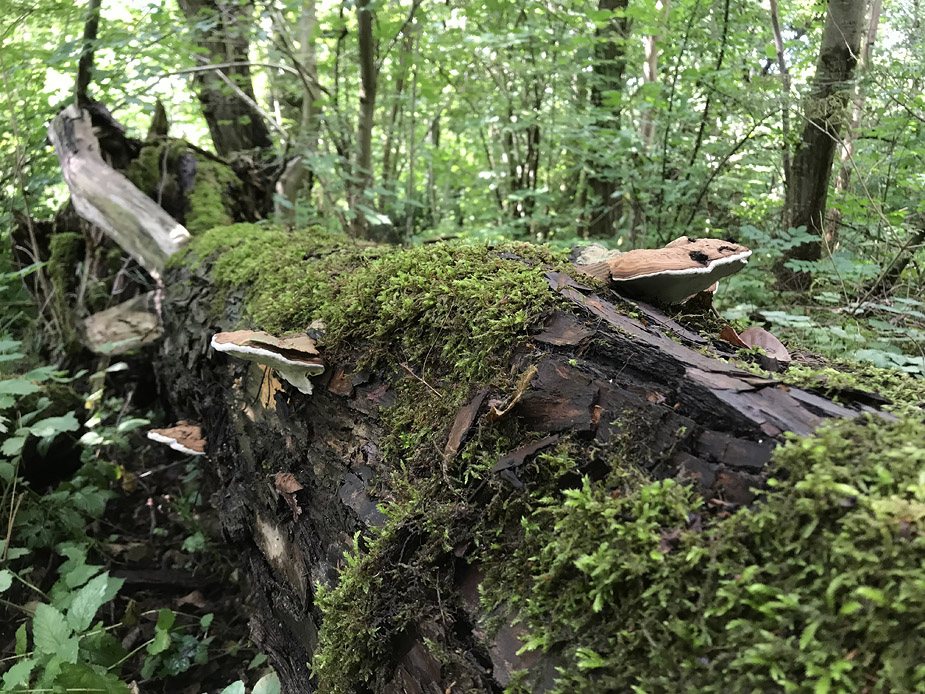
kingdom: Fungi
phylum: Basidiomycota
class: Agaricomycetes
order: Polyporales
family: Polyporaceae
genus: Ganoderma
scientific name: Ganoderma applanatum
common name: flad lakporesvamp
